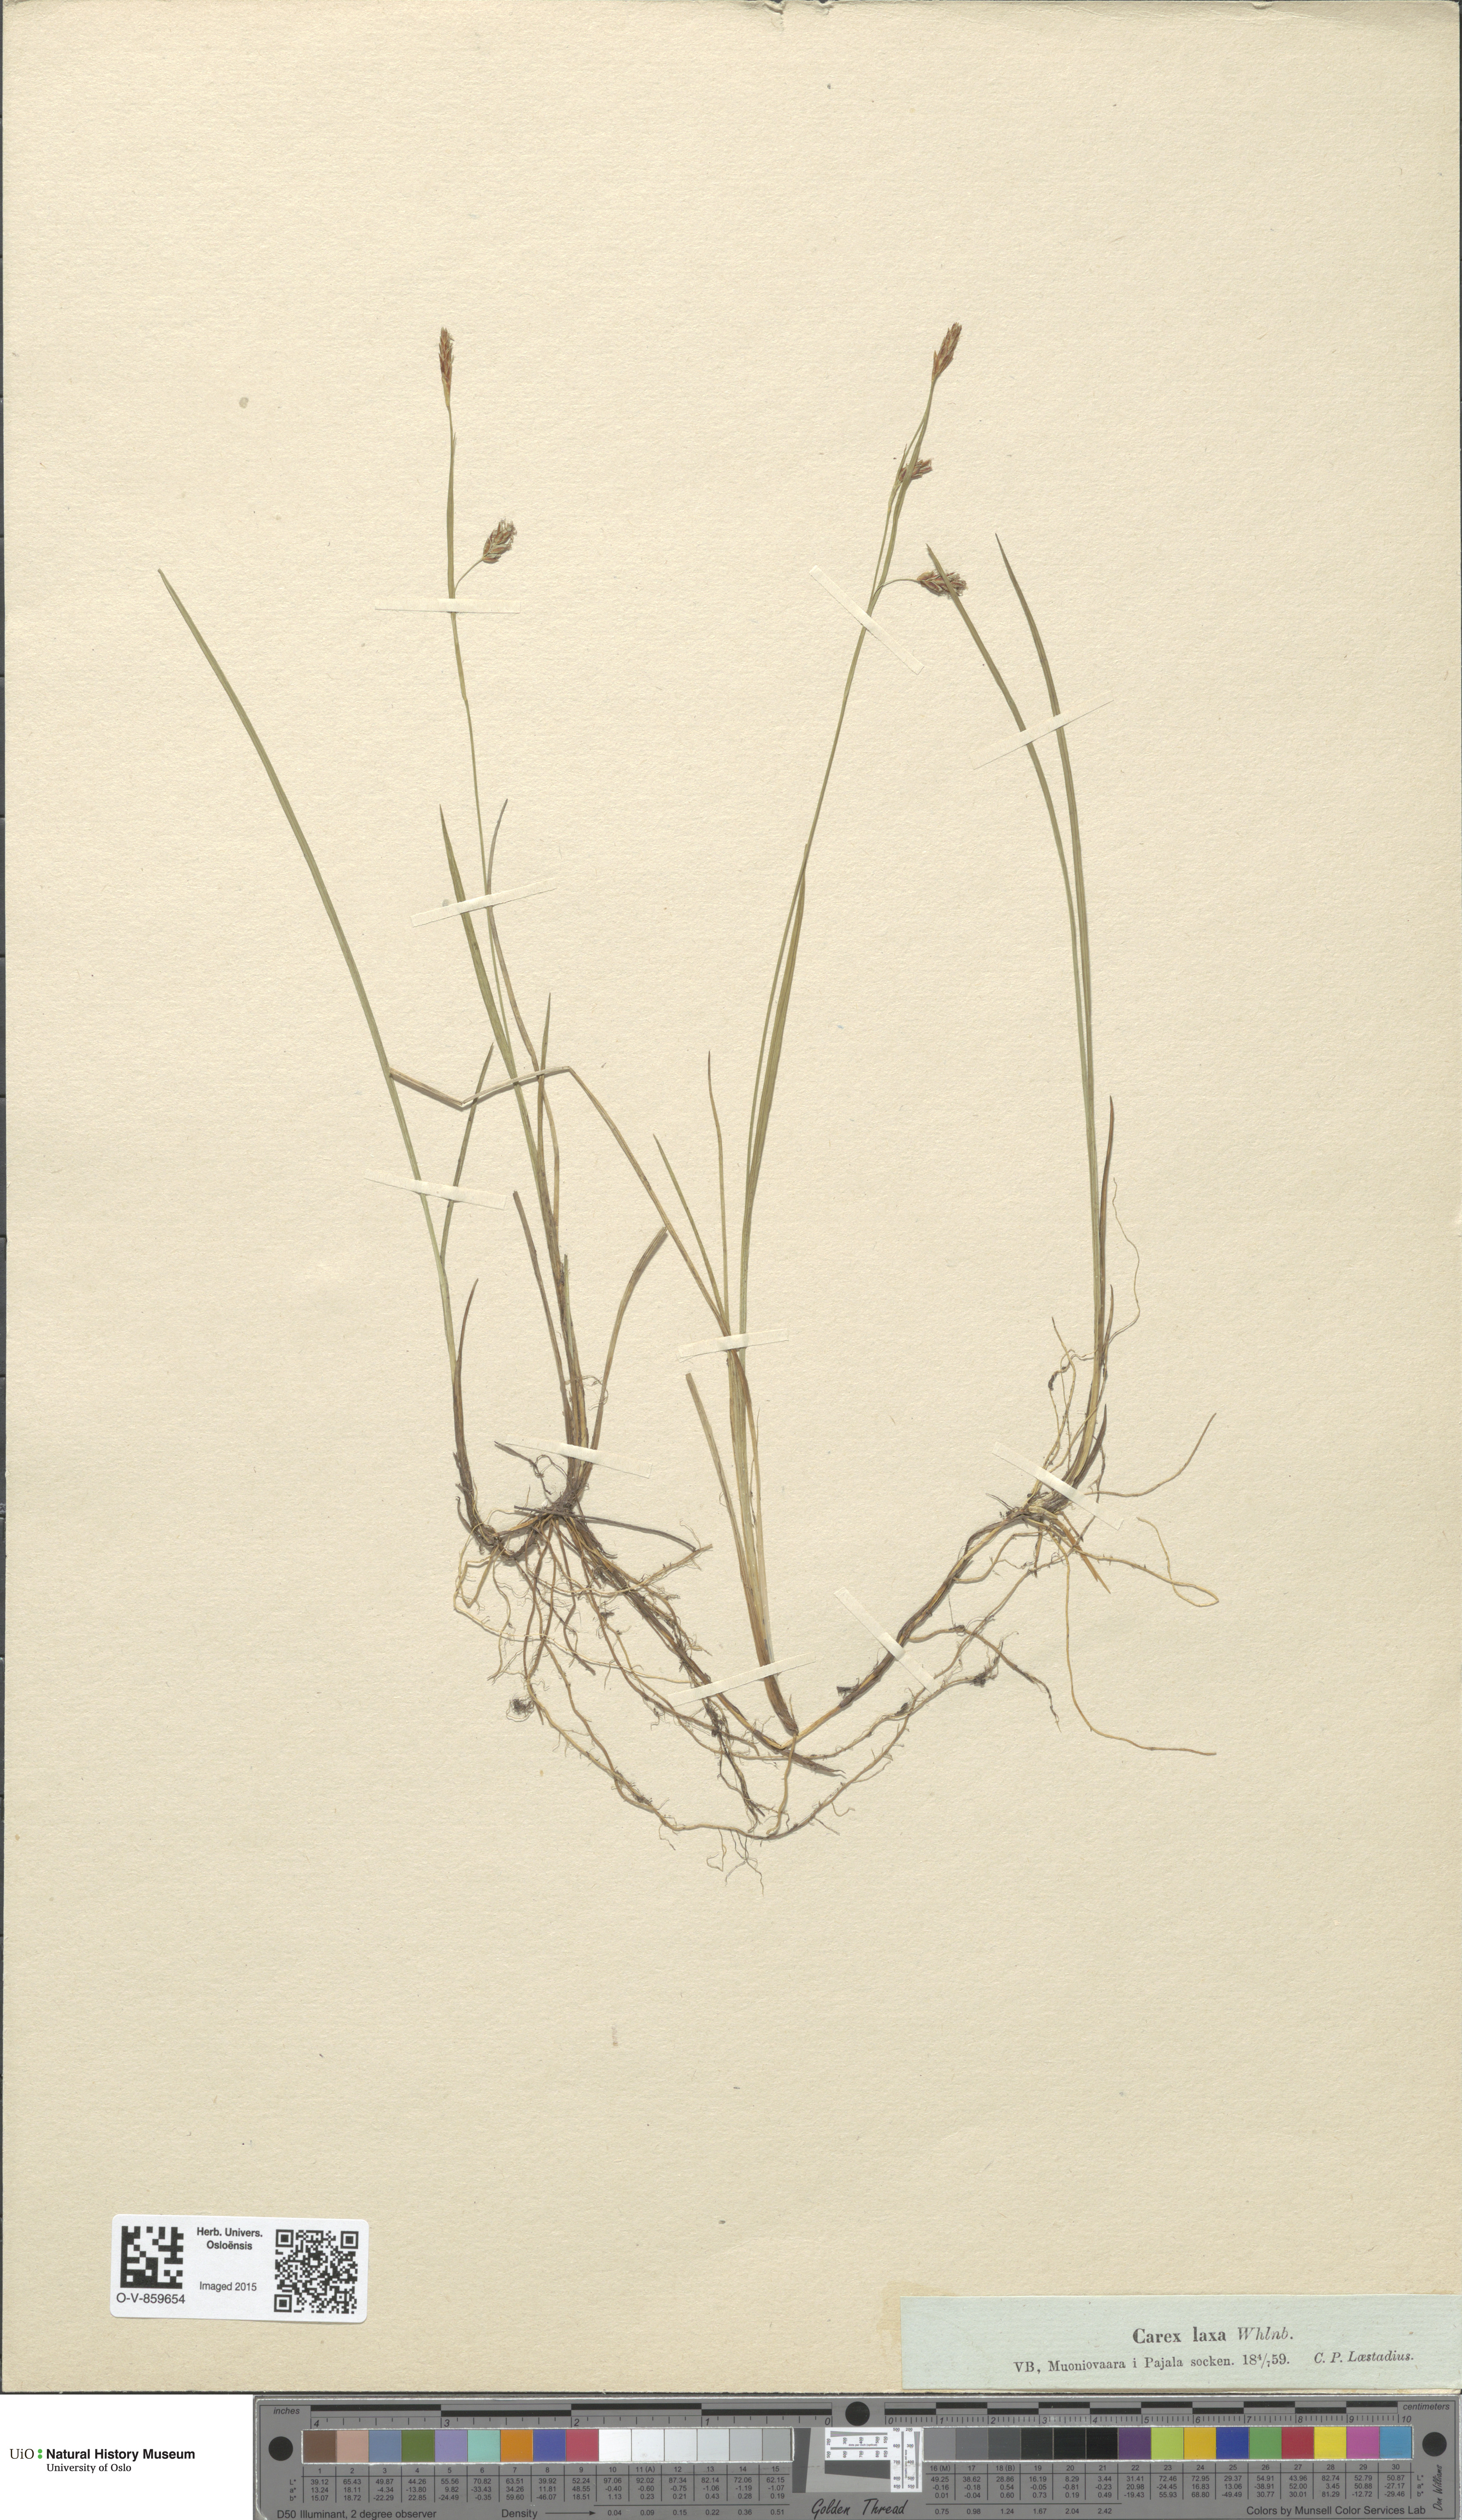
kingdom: Plantae
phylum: Tracheophyta
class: Liliopsida
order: Poales
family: Cyperaceae
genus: Carex
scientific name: Carex laxa
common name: Weak sedge
